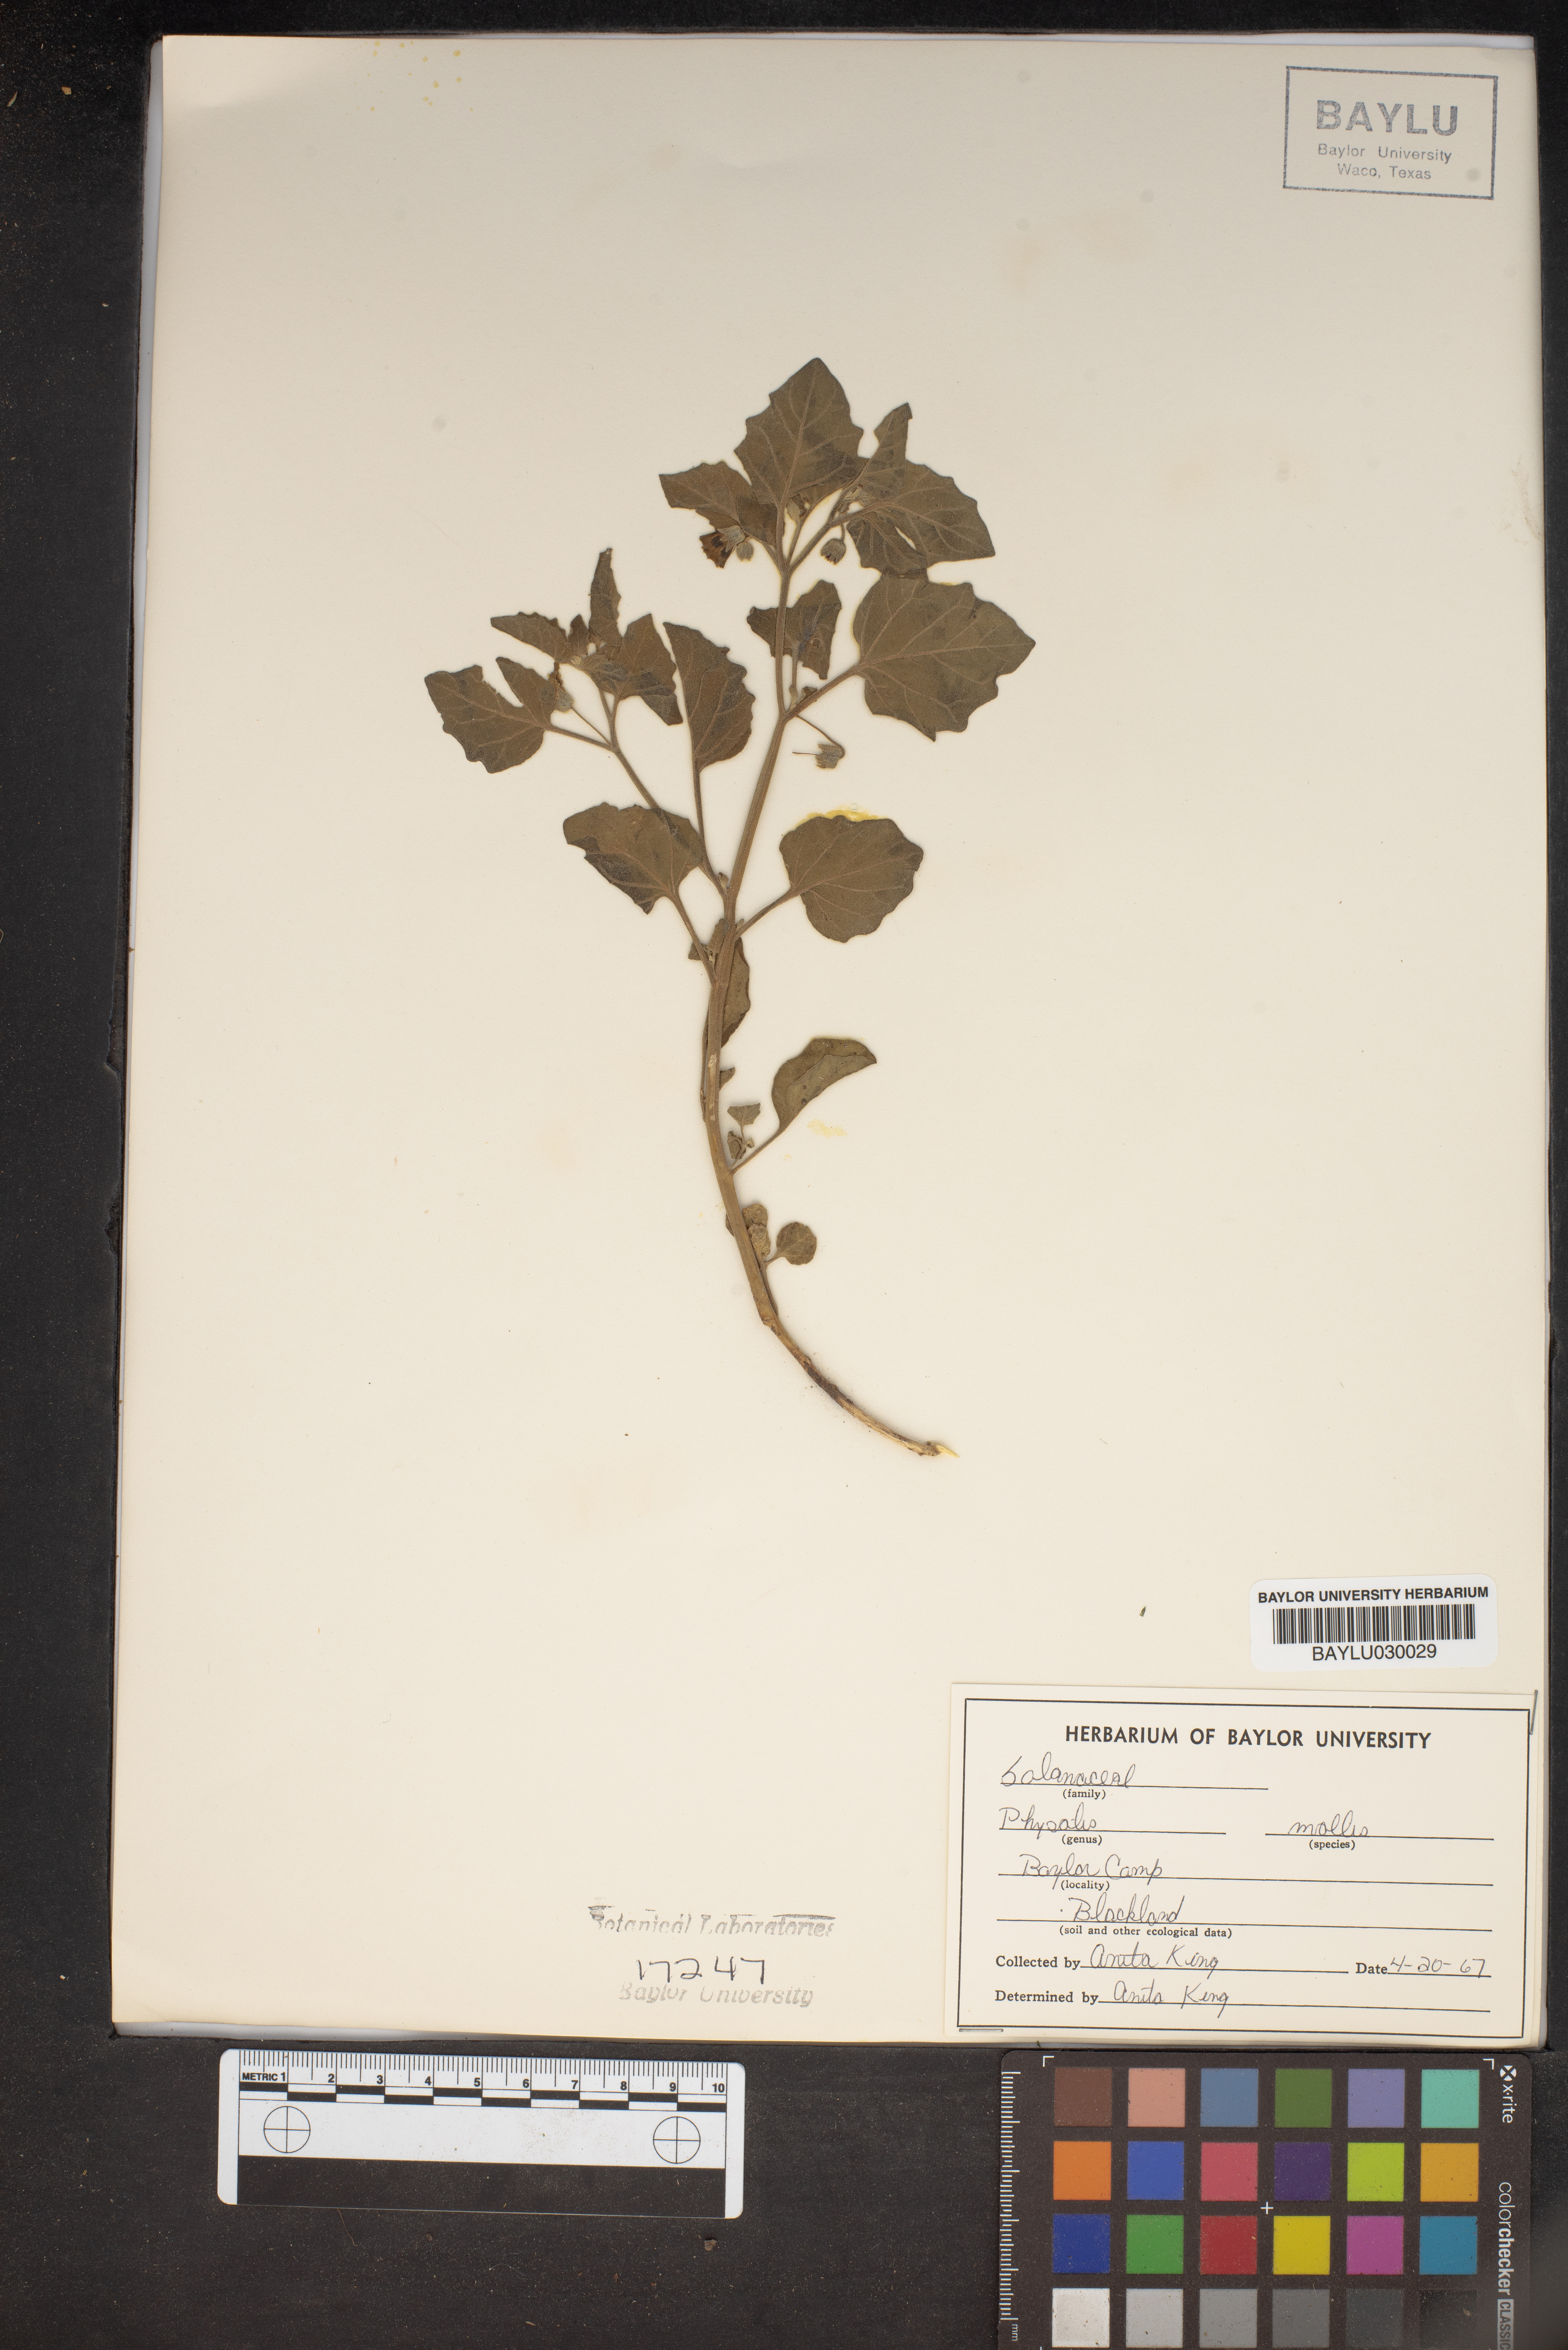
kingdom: Plantae
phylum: Tracheophyta
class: Magnoliopsida
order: Solanales
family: Solanaceae
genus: Physalis
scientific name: Physalis mollis
